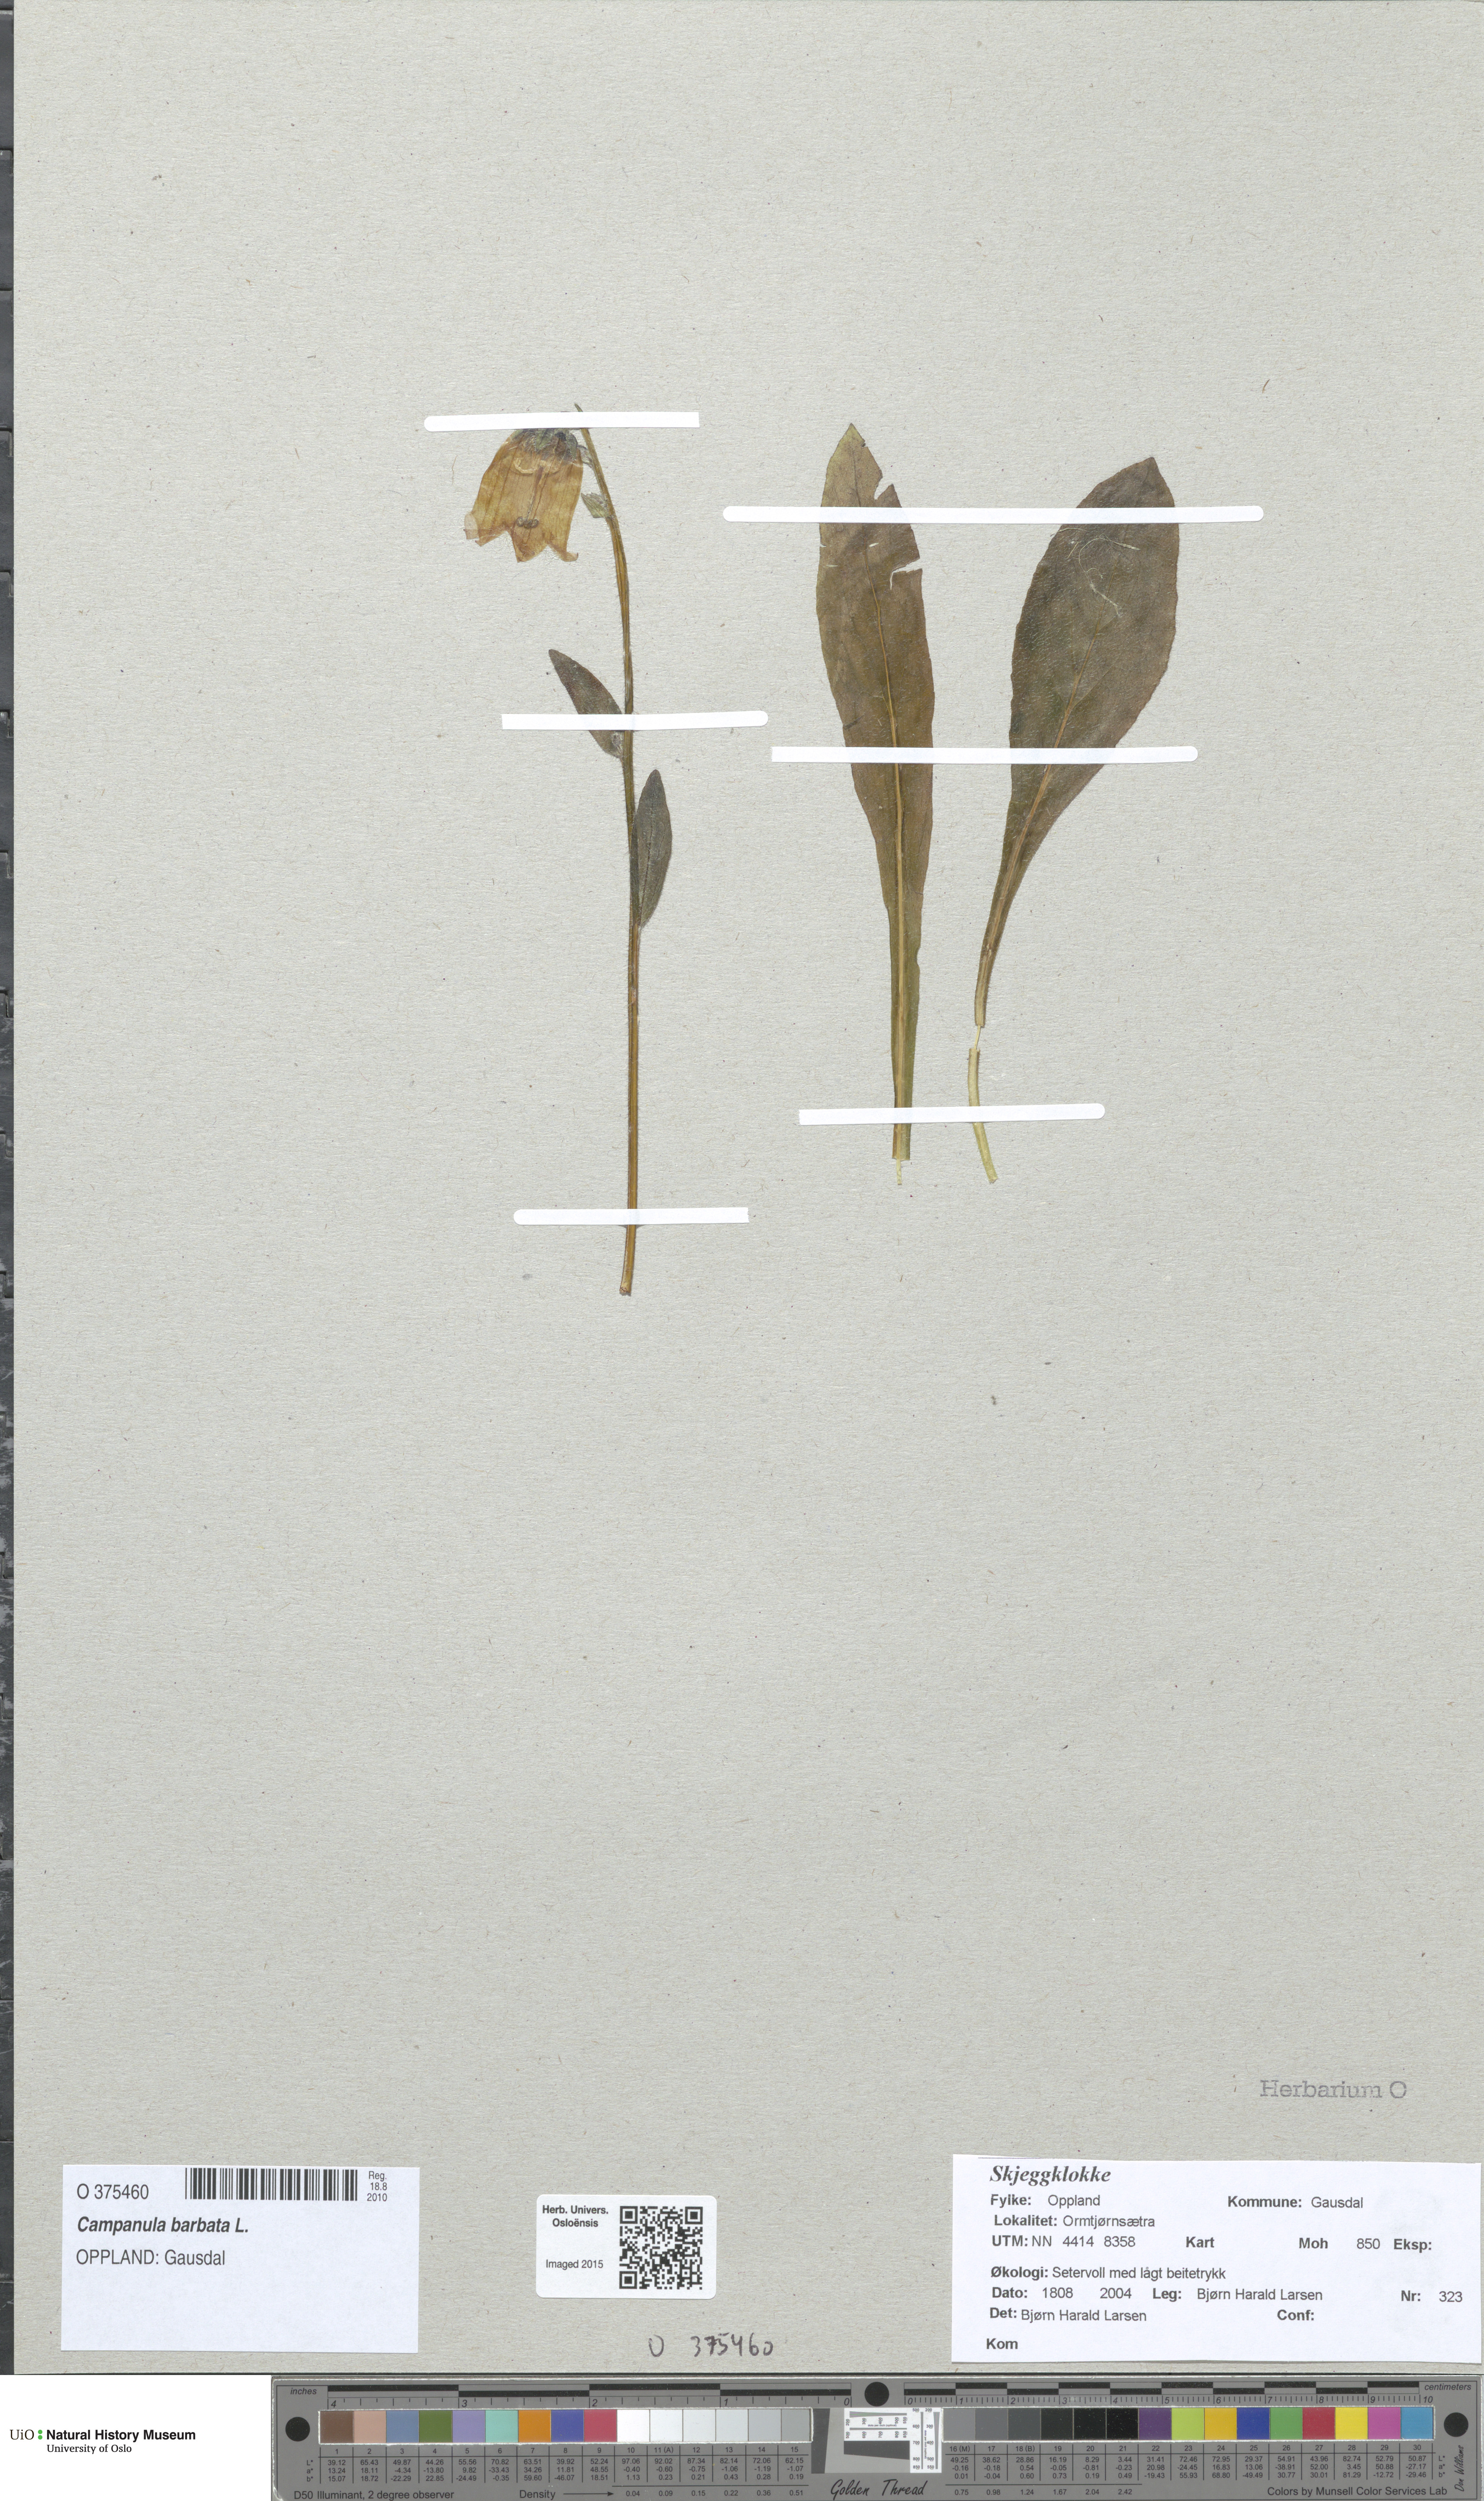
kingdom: Plantae
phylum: Tracheophyta
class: Magnoliopsida
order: Asterales
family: Campanulaceae
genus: Campanula
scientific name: Campanula barbata
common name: Bearded bellflower
